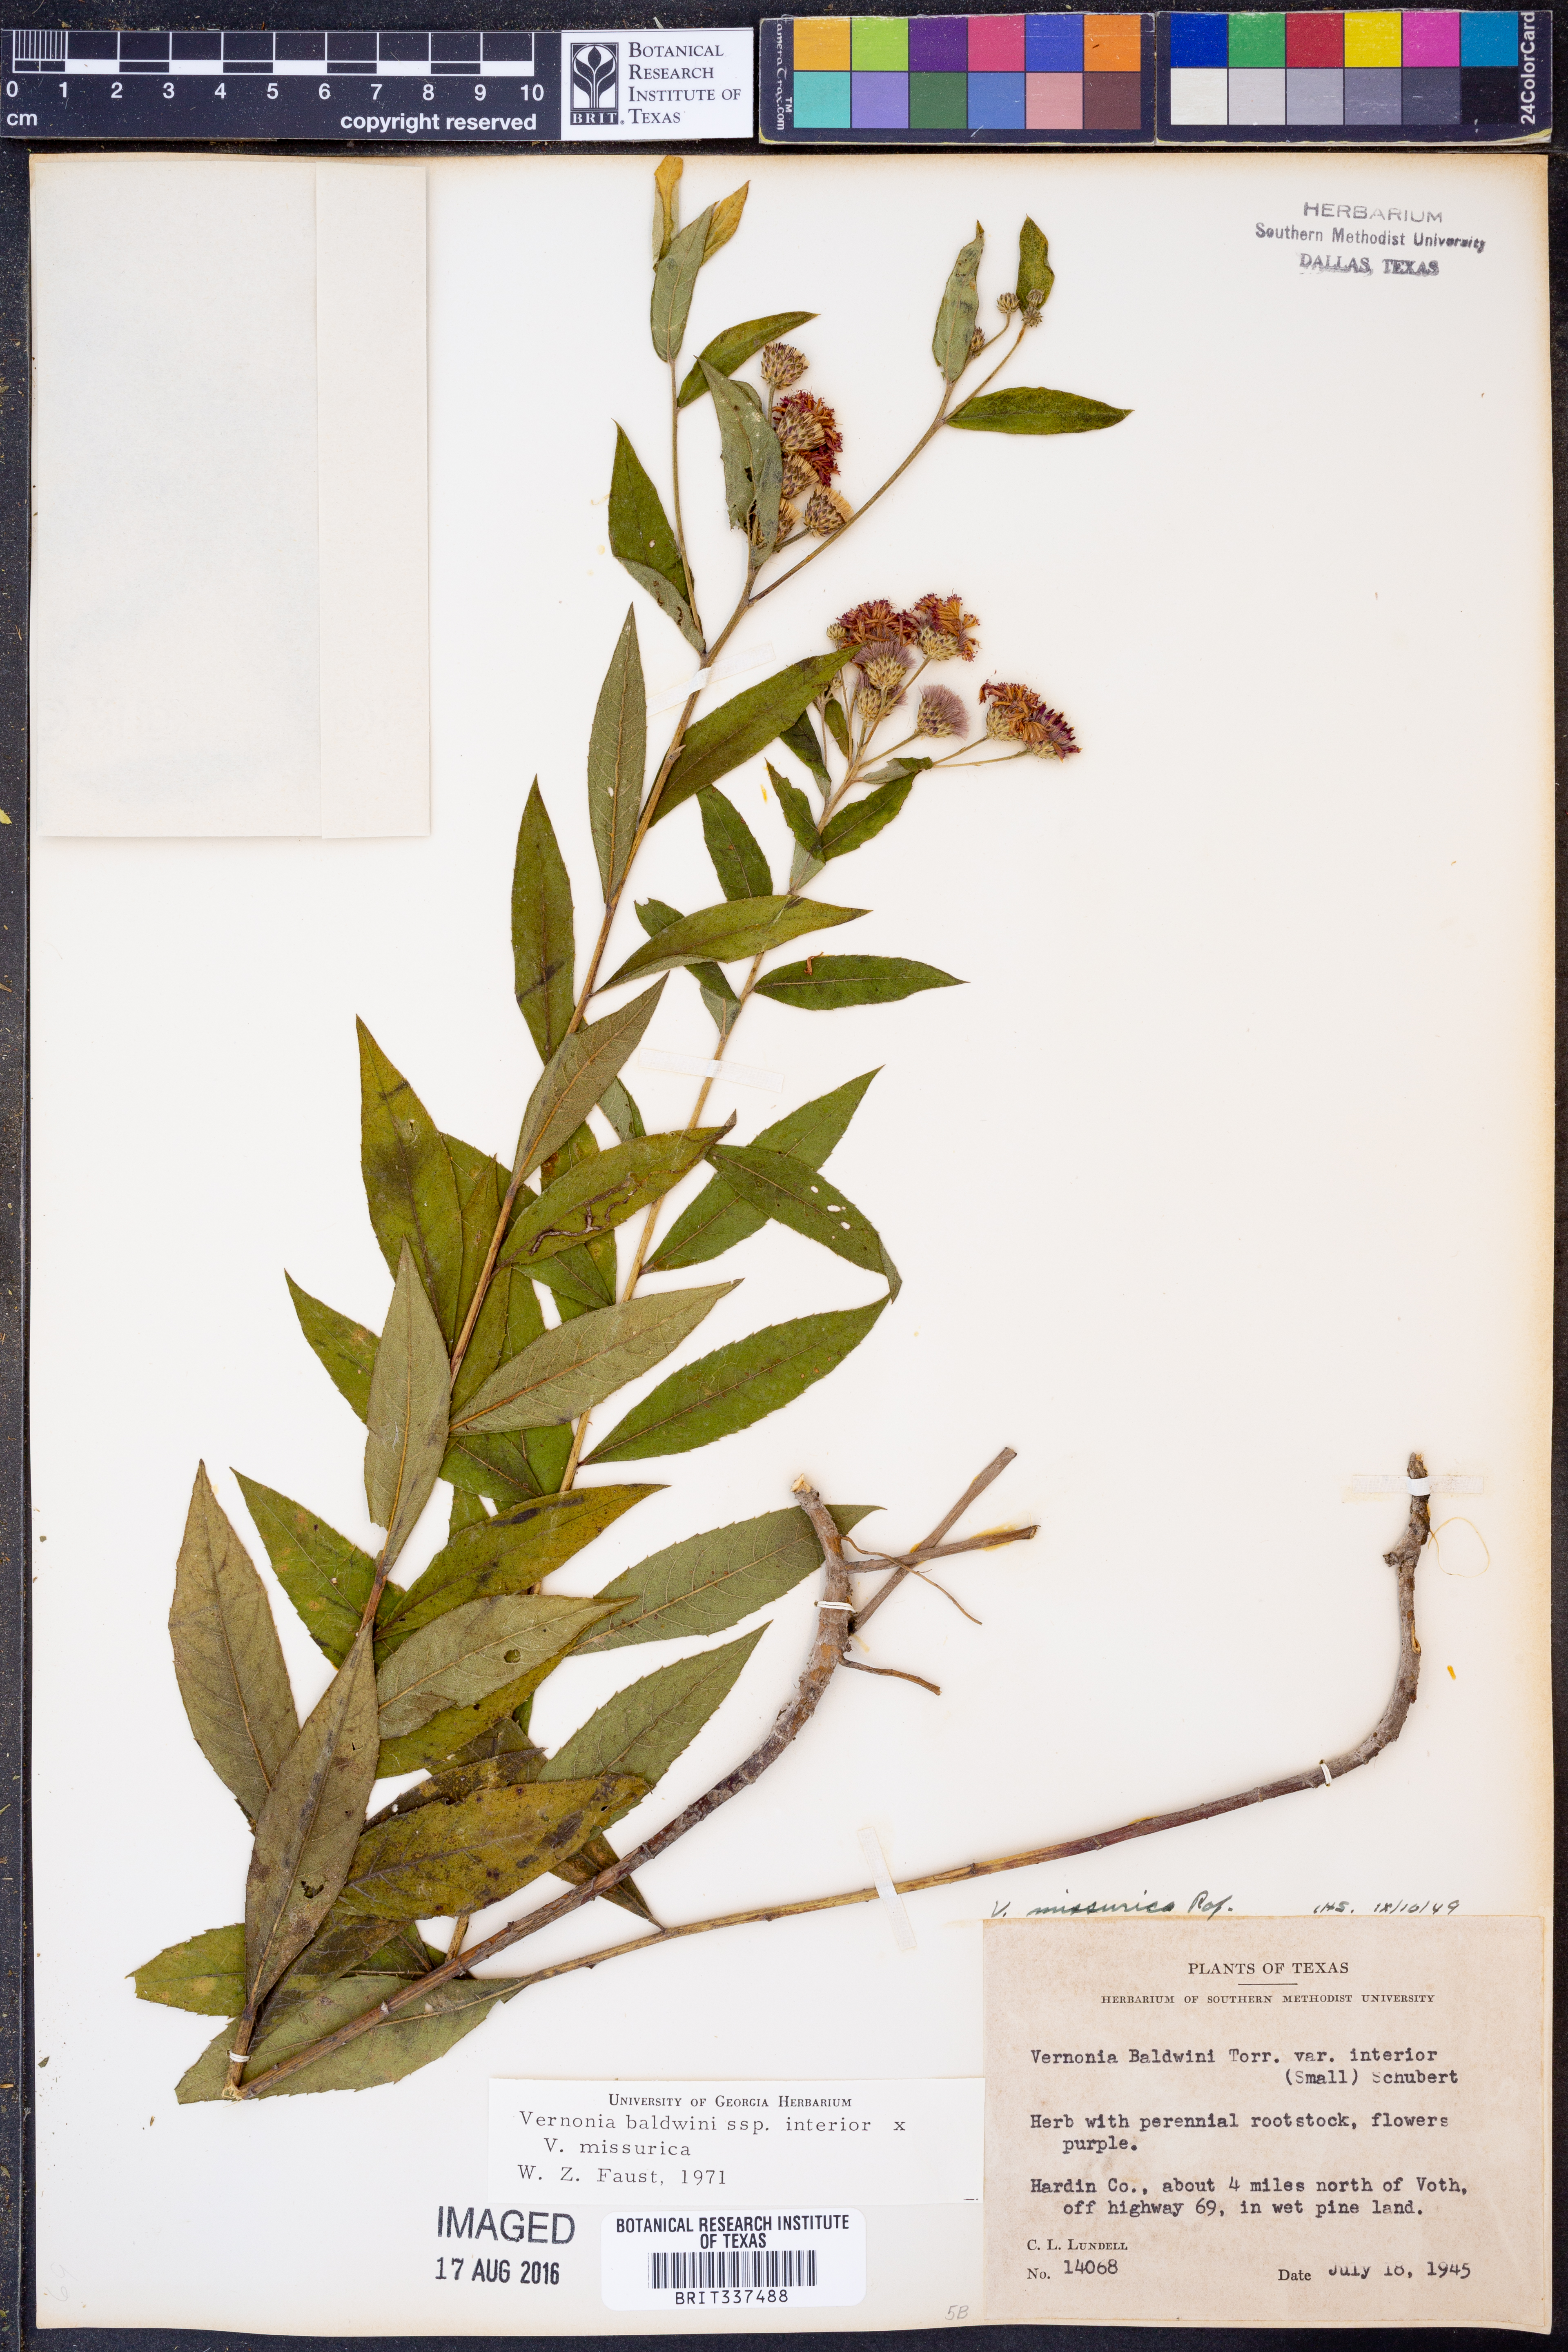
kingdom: Plantae
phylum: Tracheophyta
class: Magnoliopsida
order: Asterales
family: Asteraceae
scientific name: Asteraceae
